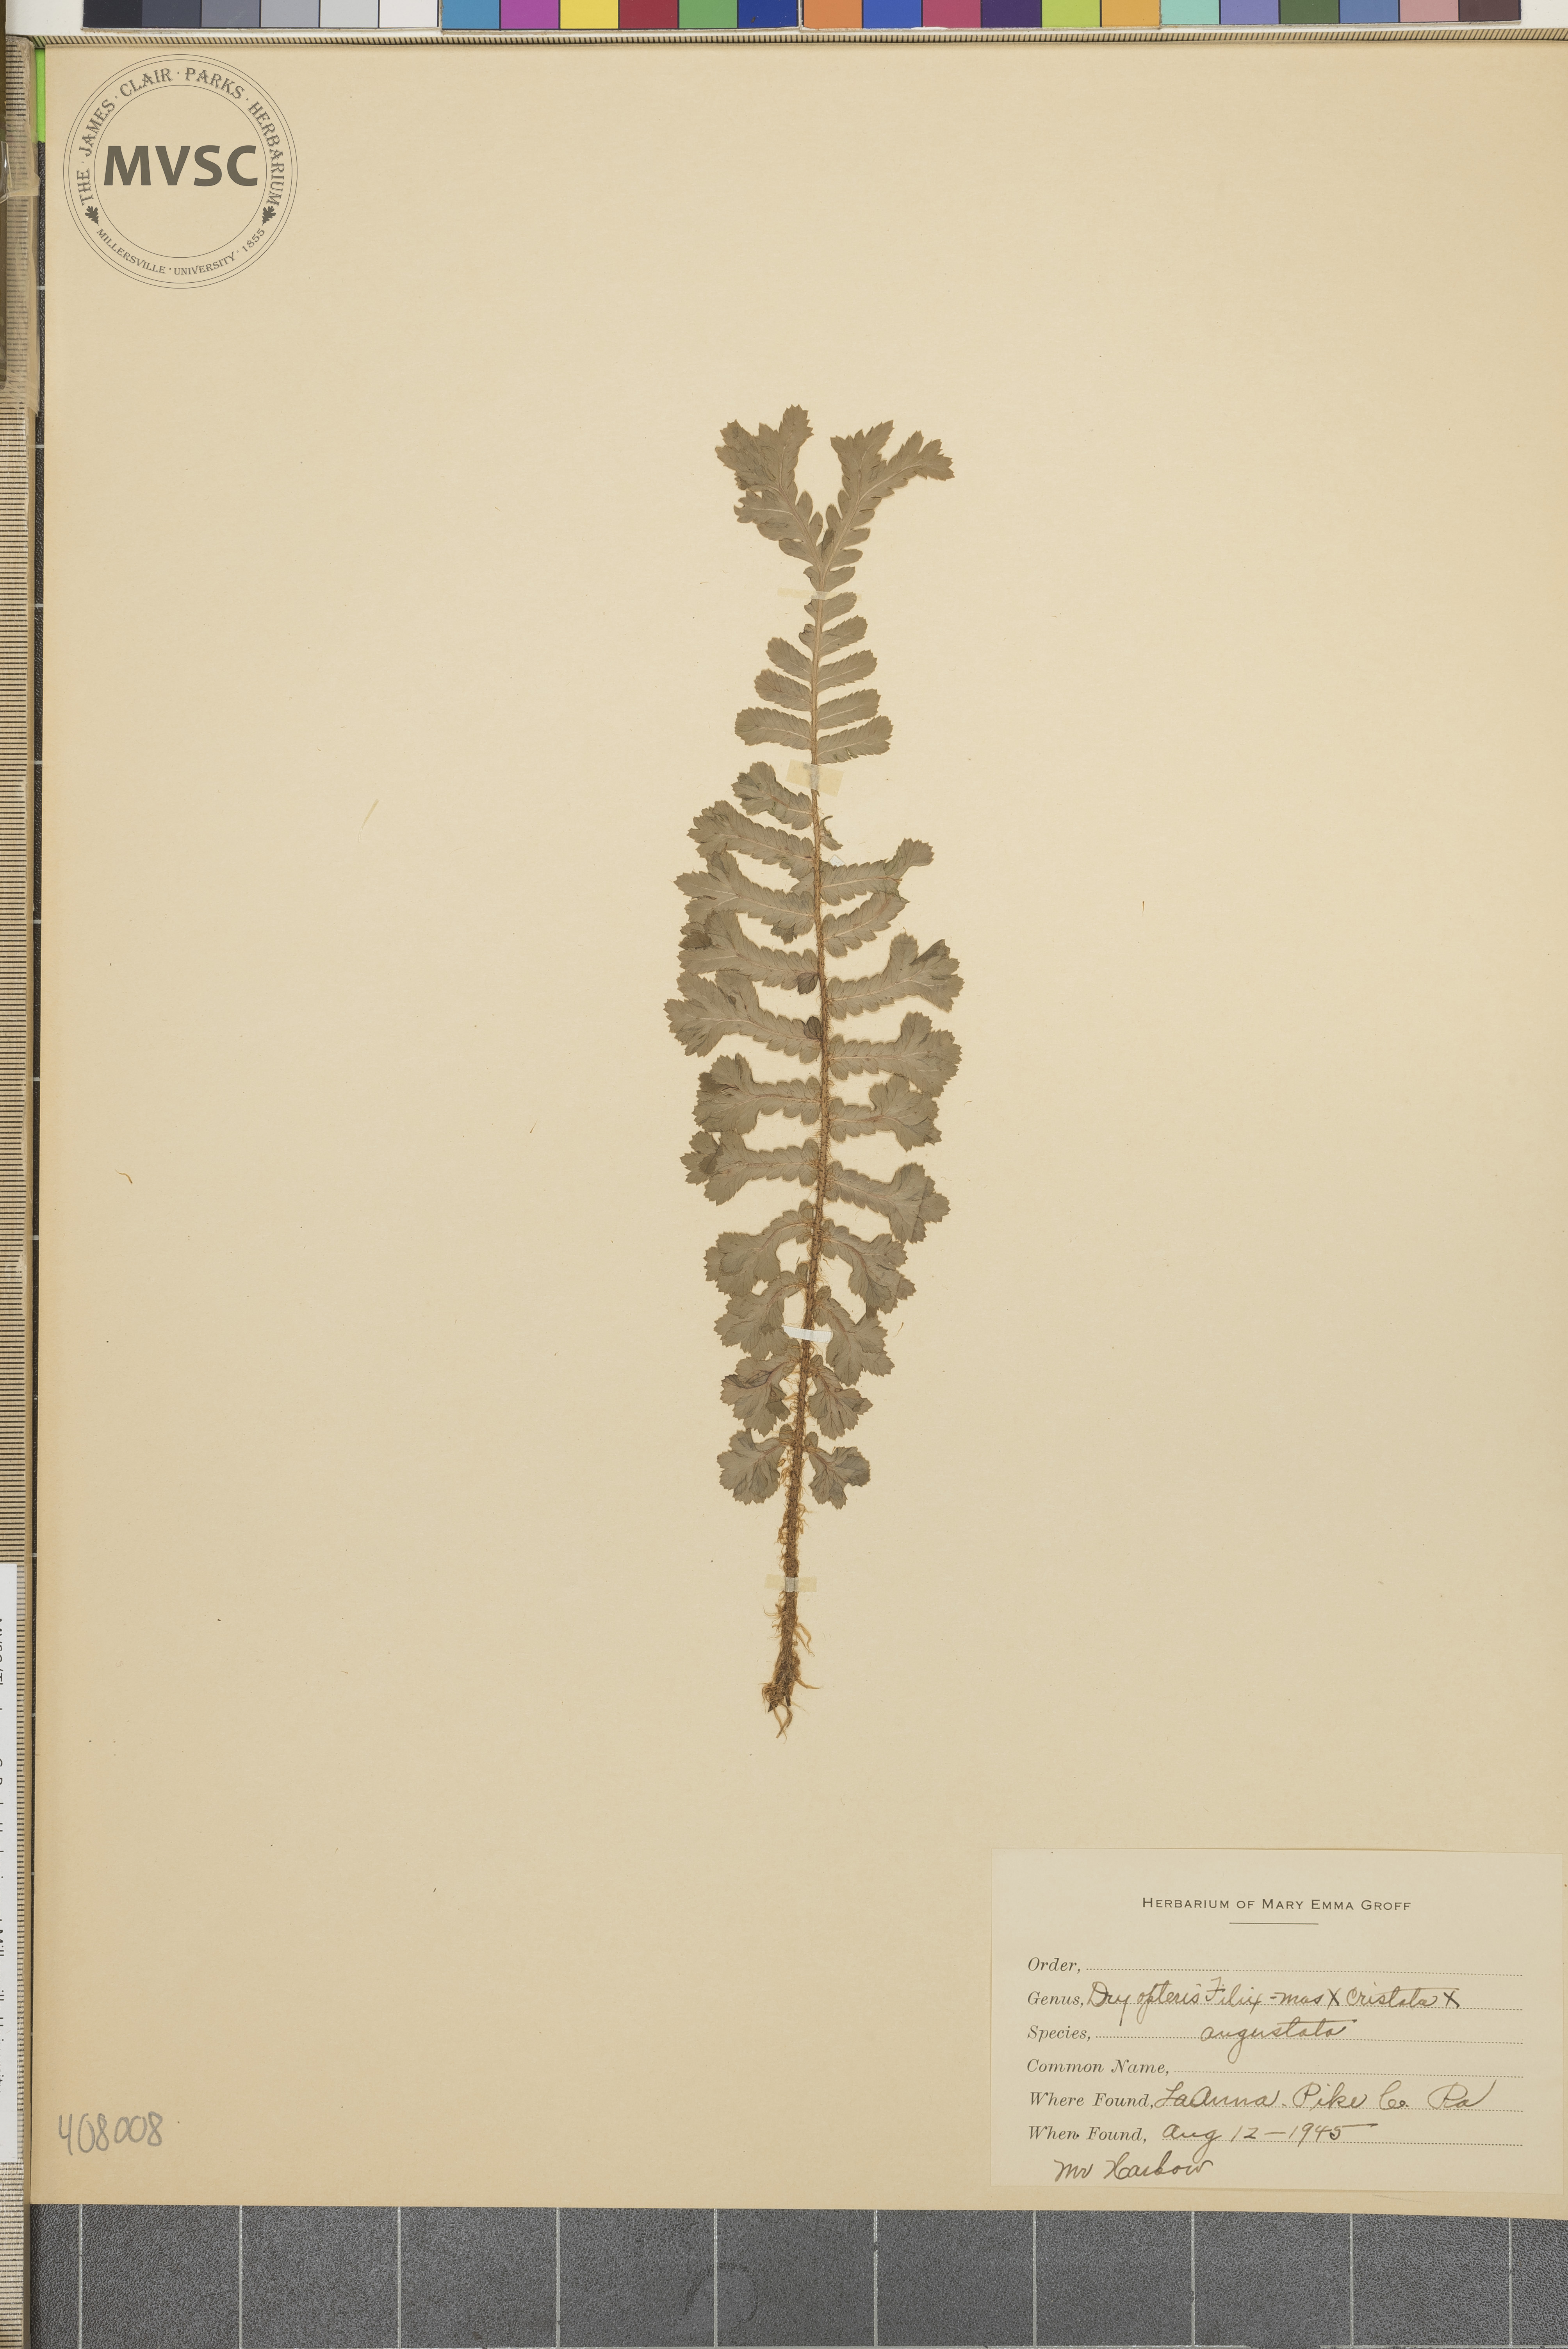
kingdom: Plantae
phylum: Tracheophyta
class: Polypodiopsida
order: Polypodiales
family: Dryopteridaceae
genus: Dryopteris
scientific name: Dryopteris
